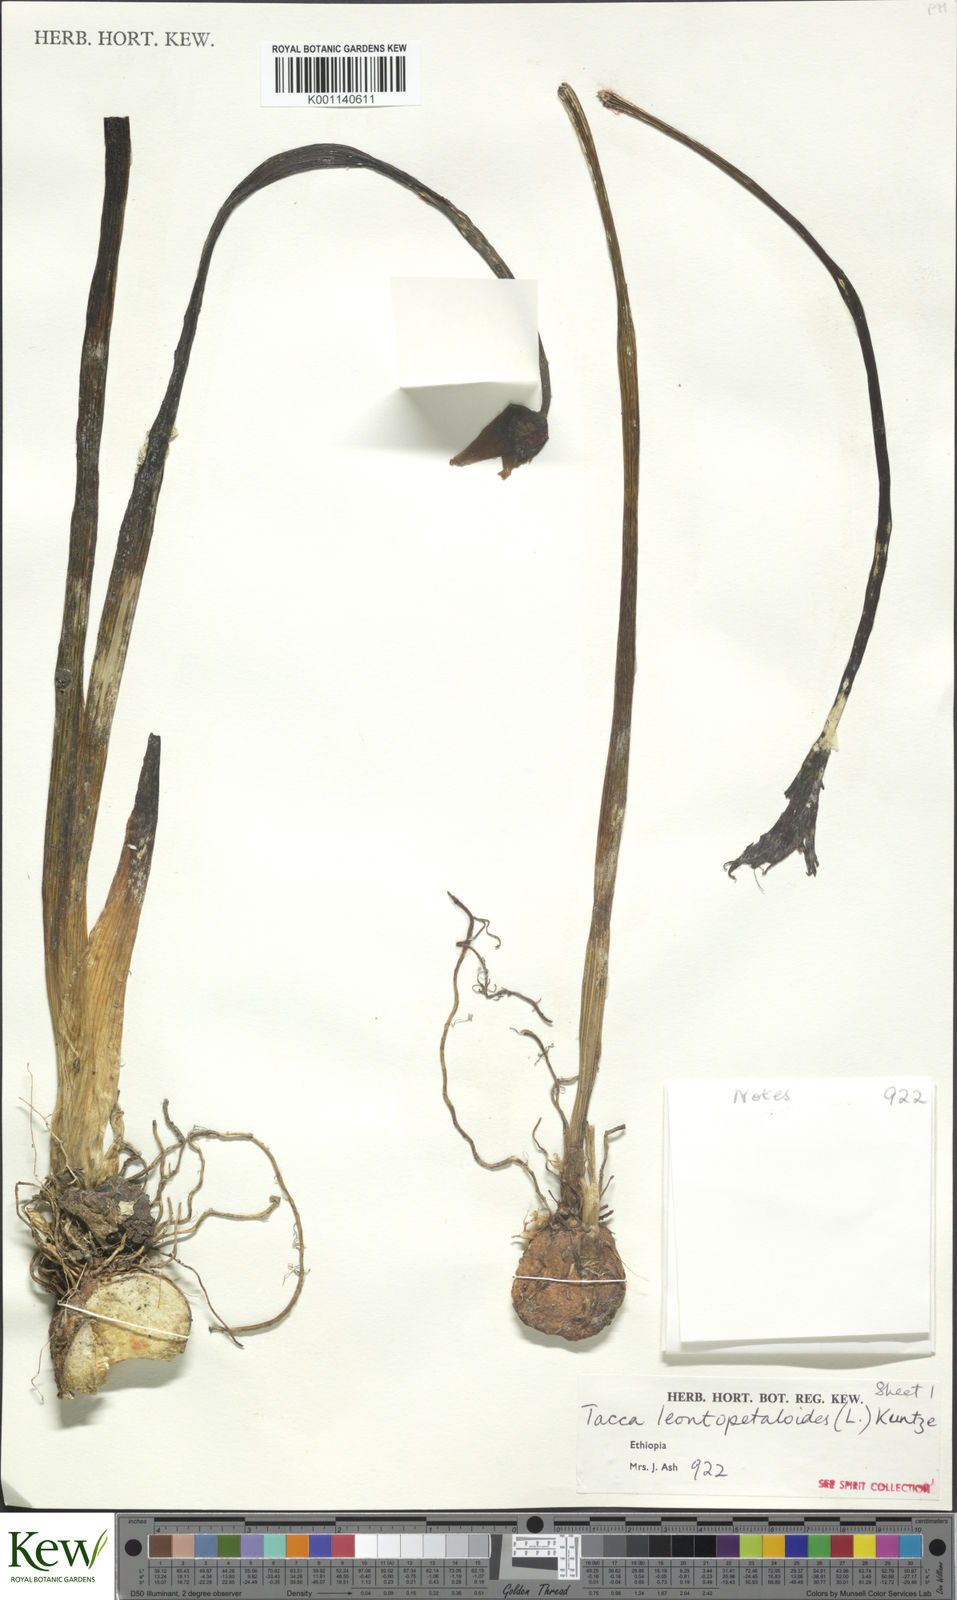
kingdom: Plantae
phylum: Tracheophyta
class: Liliopsida
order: Dioscoreales
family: Dioscoreaceae
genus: Tacca
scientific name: Tacca leontopetaloides
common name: Arrowroot
